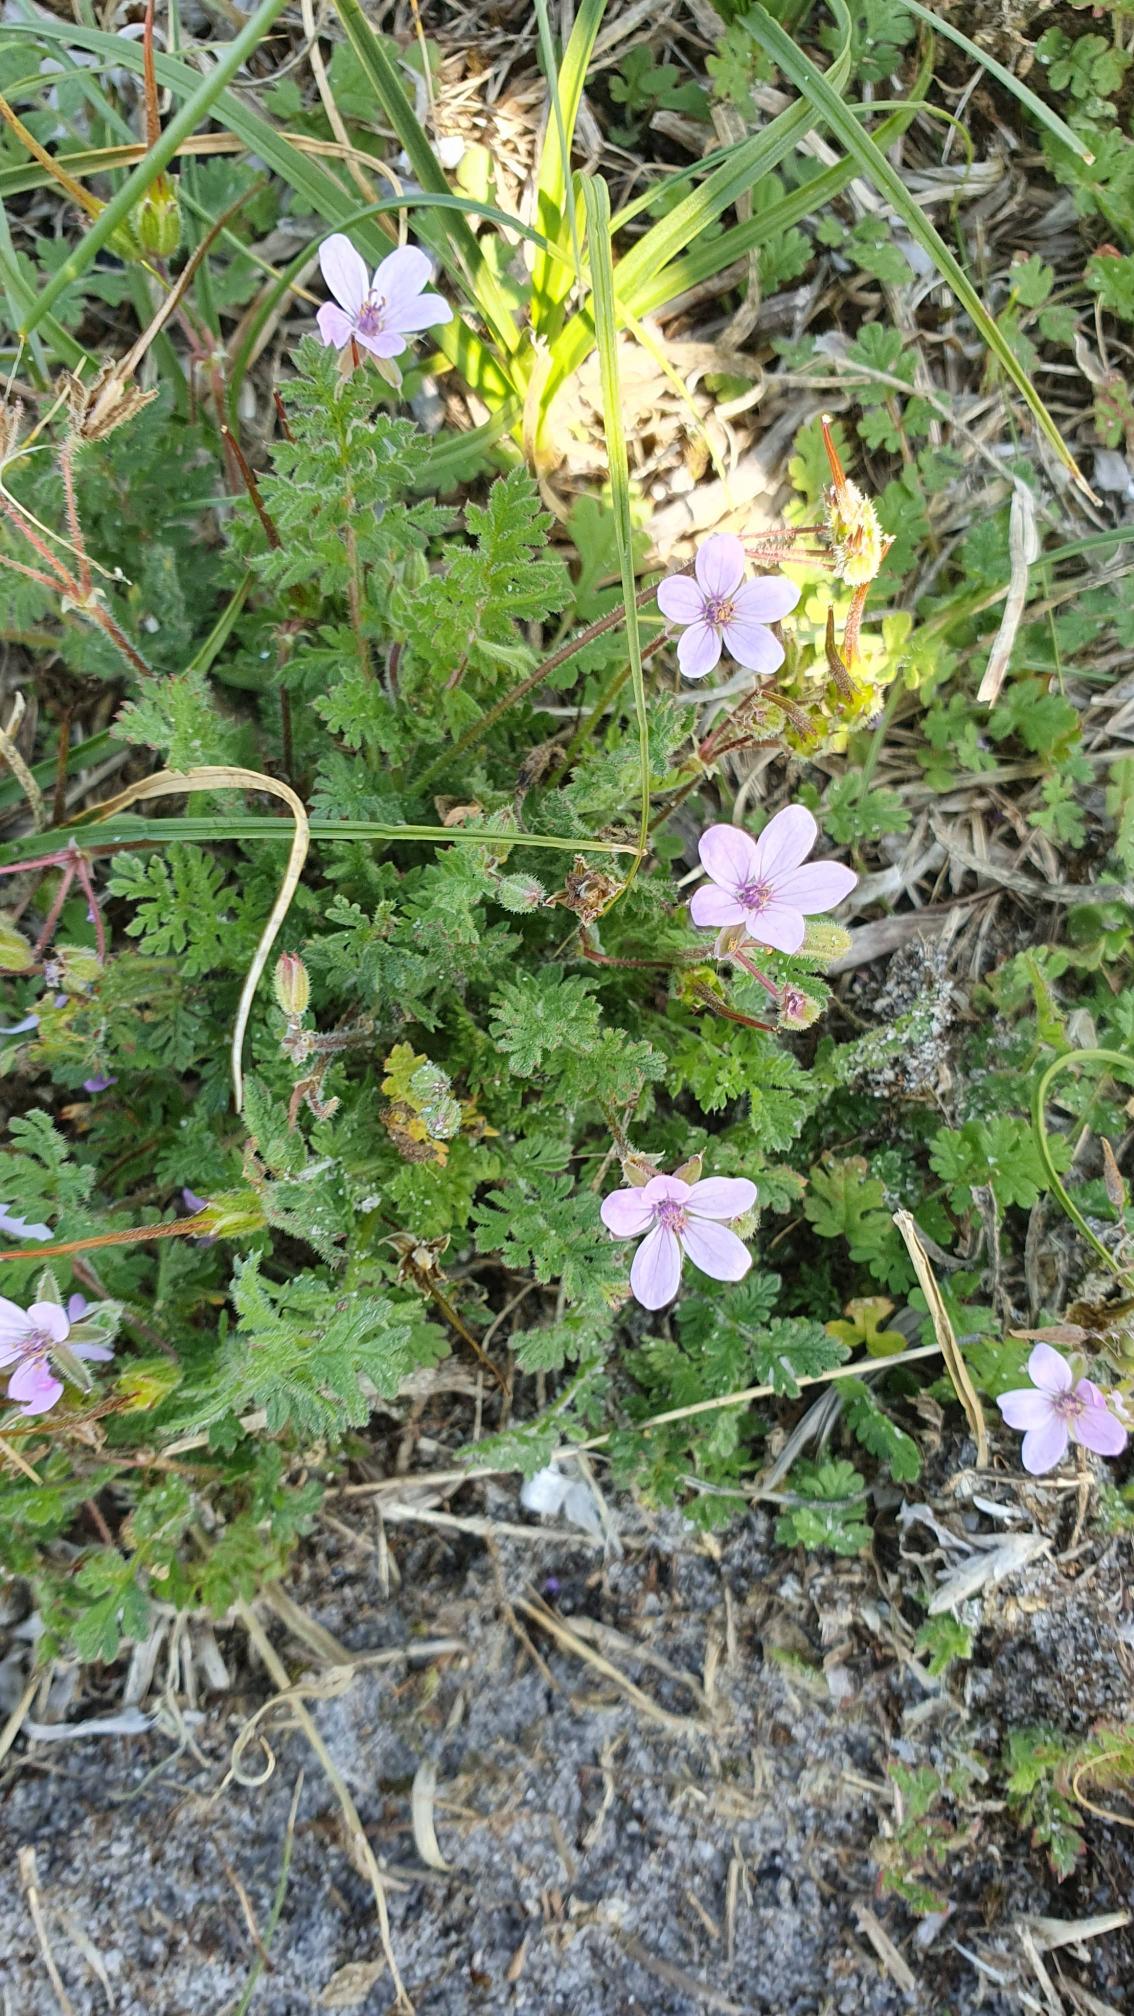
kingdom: Plantae
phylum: Tracheophyta
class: Magnoliopsida
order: Geraniales
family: Geraniaceae
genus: Erodium
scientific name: Erodium cicutarium
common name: Hejrenæb
